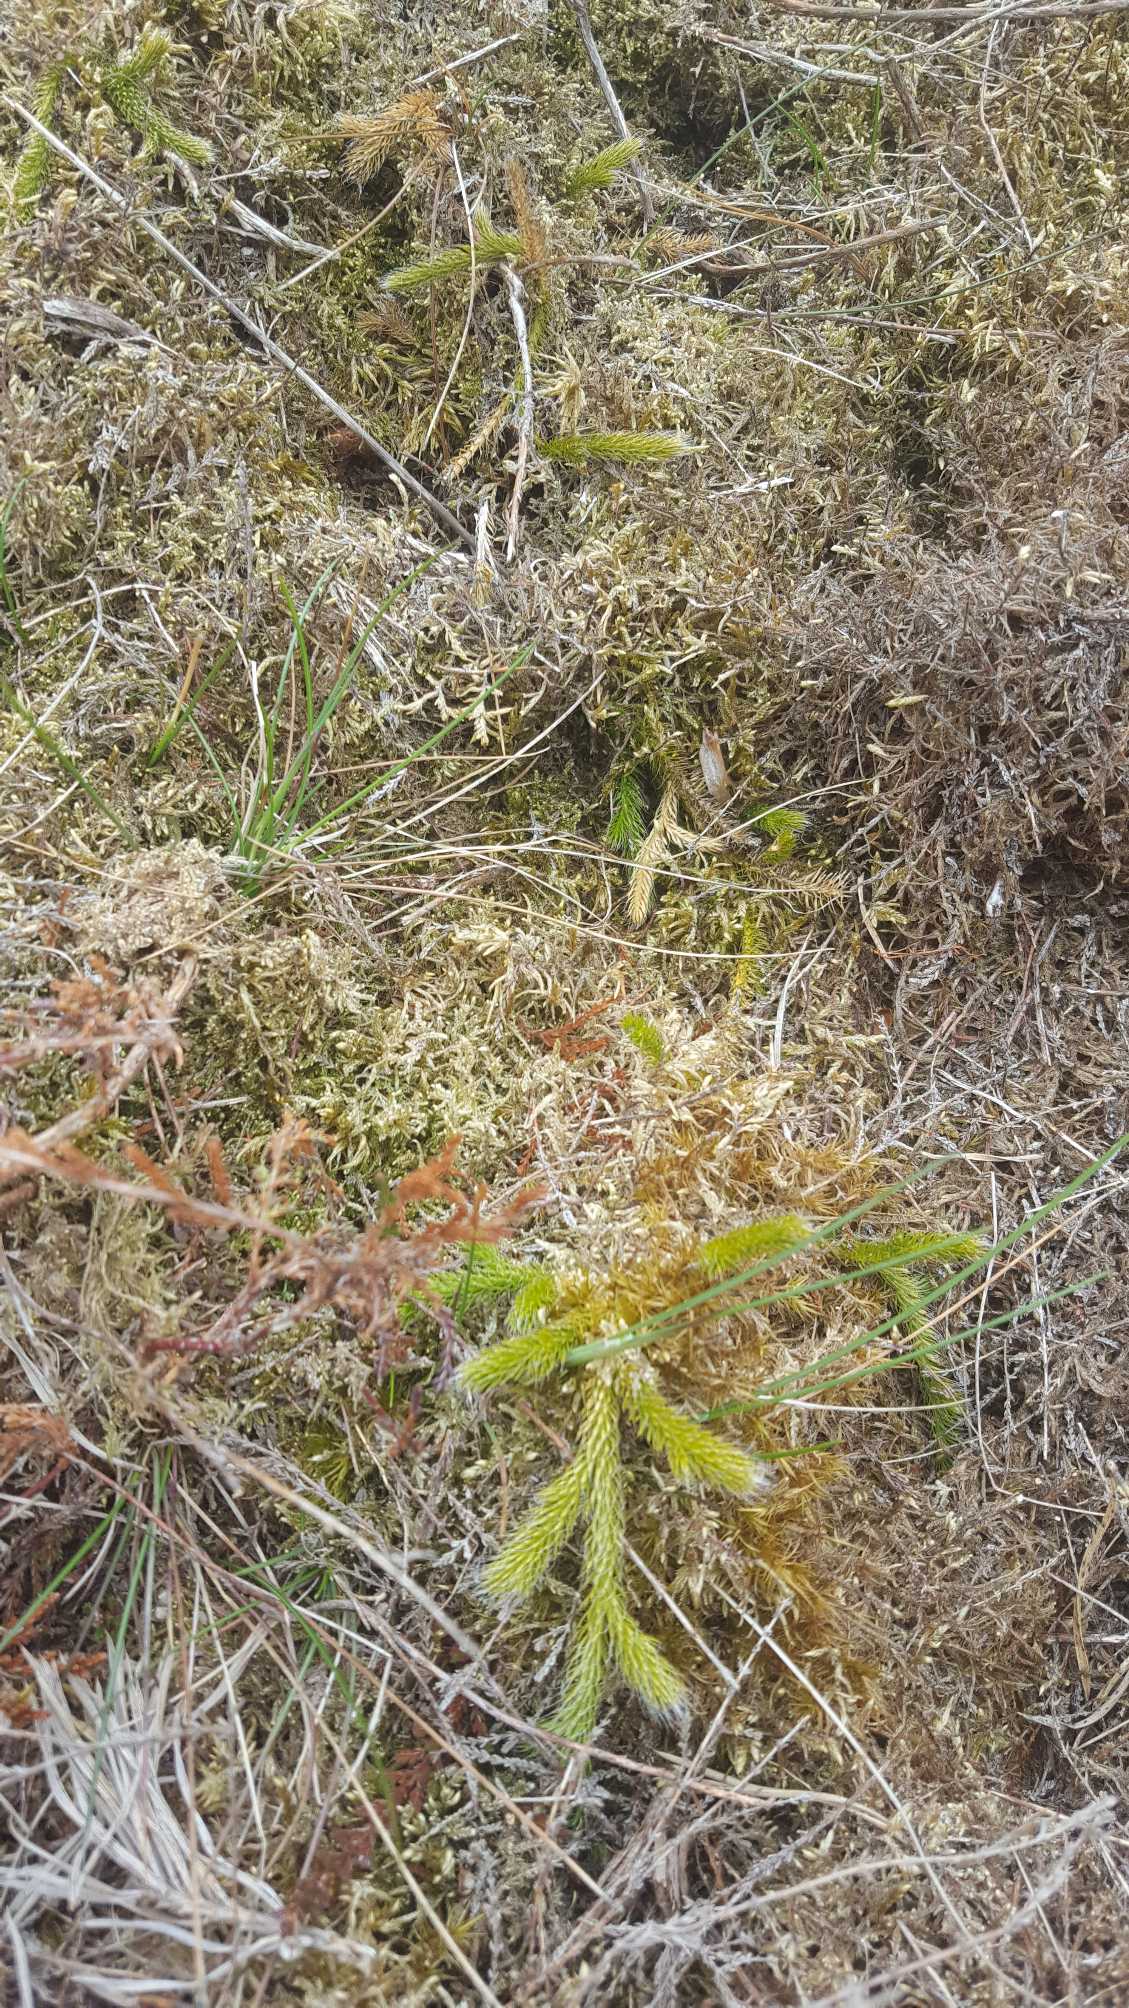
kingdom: Plantae
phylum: Tracheophyta
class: Lycopodiopsida
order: Lycopodiales
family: Lycopodiaceae
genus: Lycopodium
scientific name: Lycopodium clavatum
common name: Almindelig ulvefod
